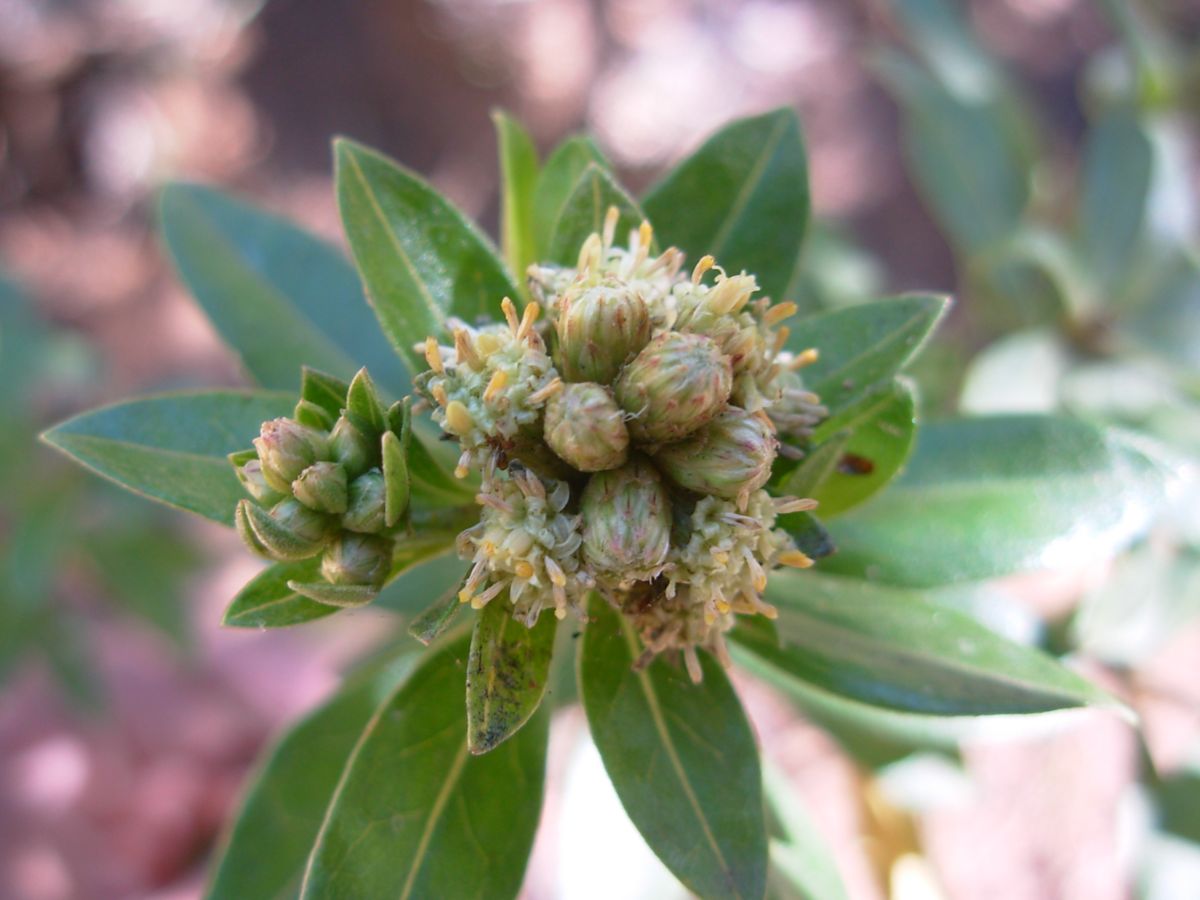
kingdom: Plantae
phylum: Tracheophyta
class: Magnoliopsida
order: Asterales
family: Asteraceae
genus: Baccharis
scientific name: Baccharis lancifolia
